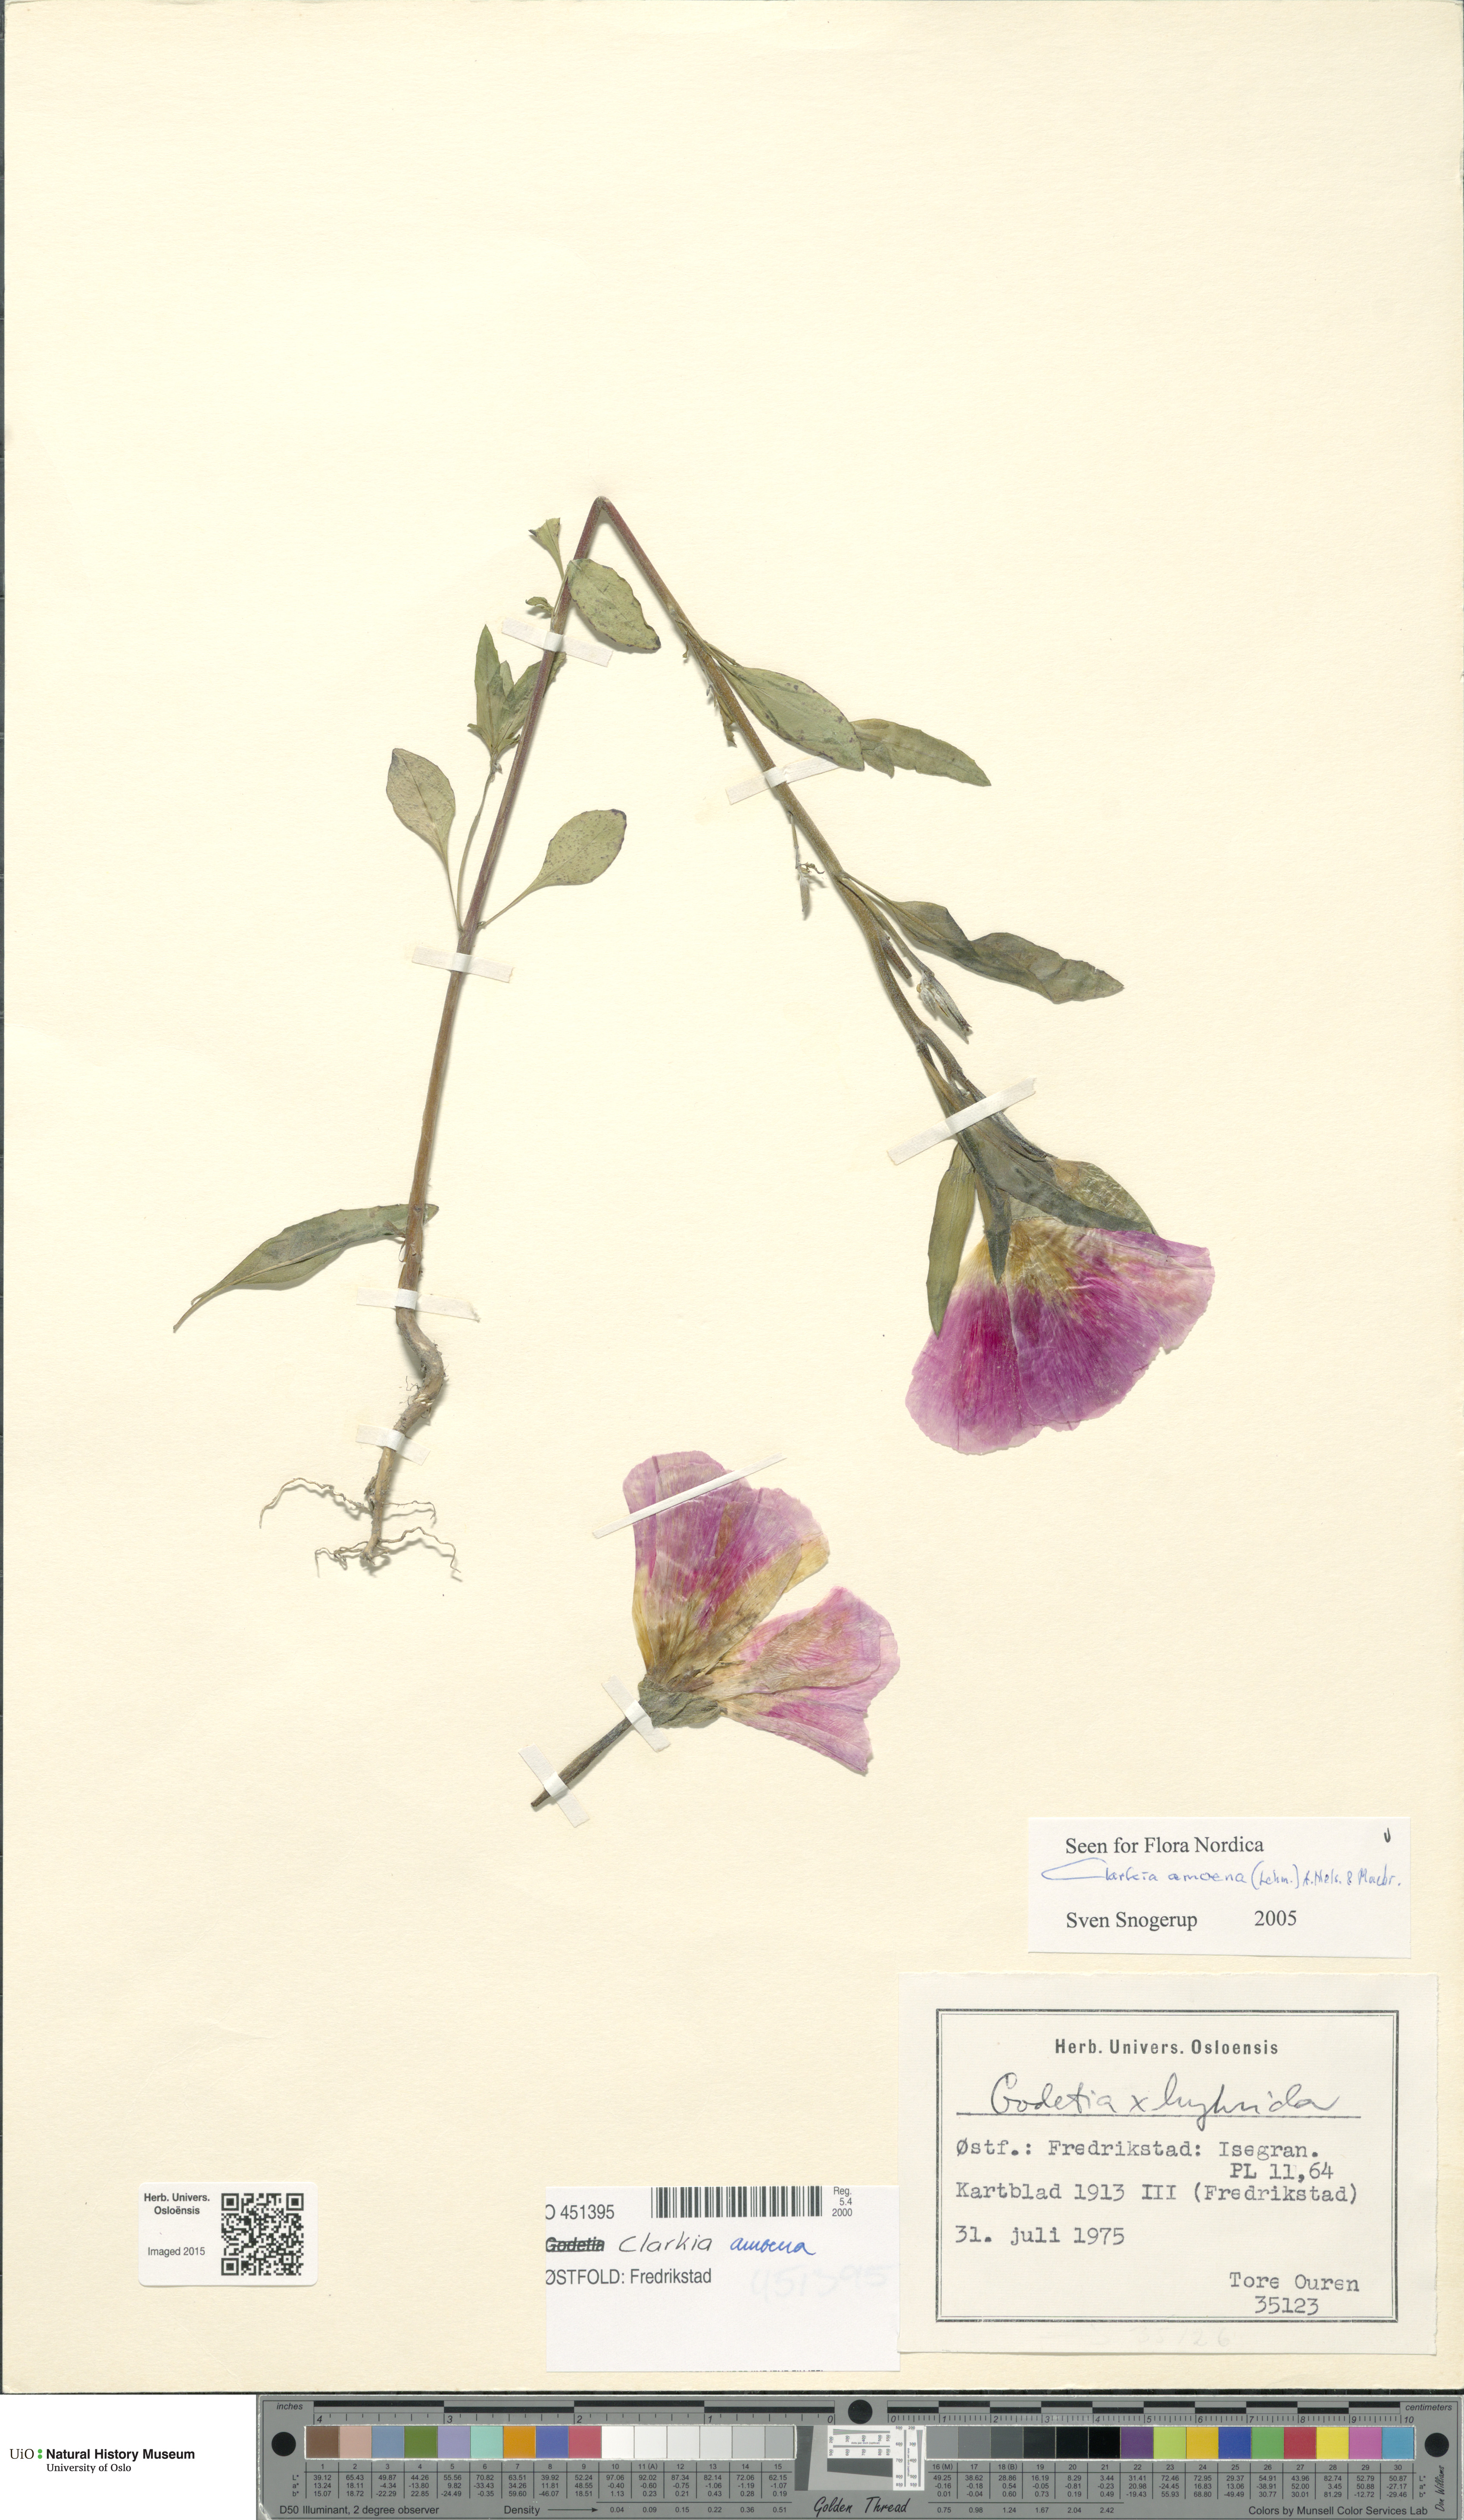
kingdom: Plantae
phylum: Tracheophyta
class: Magnoliopsida
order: Myrtales
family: Onagraceae
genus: Clarkia
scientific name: Clarkia amoena
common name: Godetia
